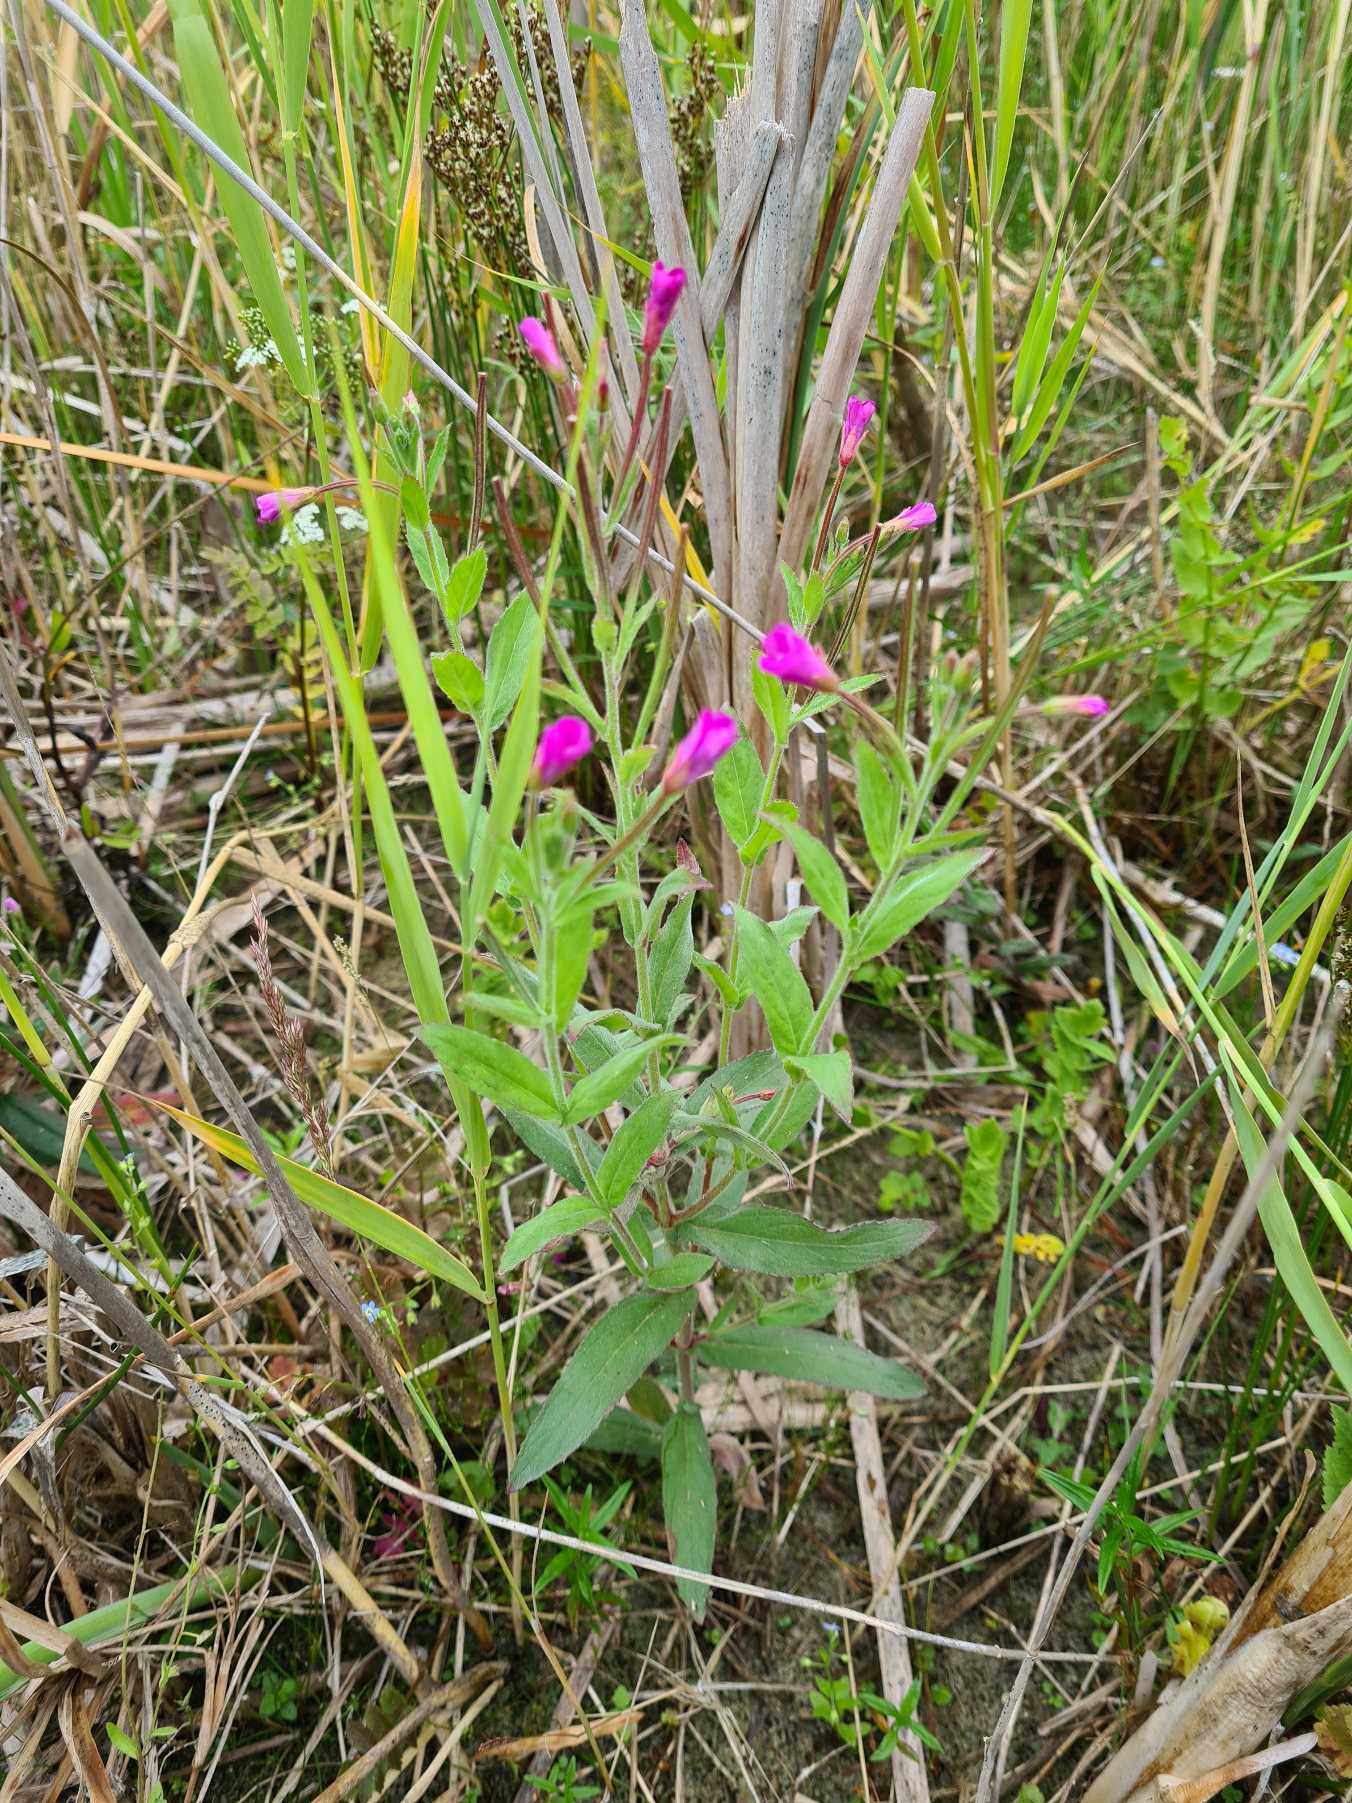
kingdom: Plantae
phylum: Tracheophyta
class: Magnoliopsida
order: Myrtales
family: Onagraceae
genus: Epilobium
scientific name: Epilobium hirsutum
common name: Lådden dueurt
